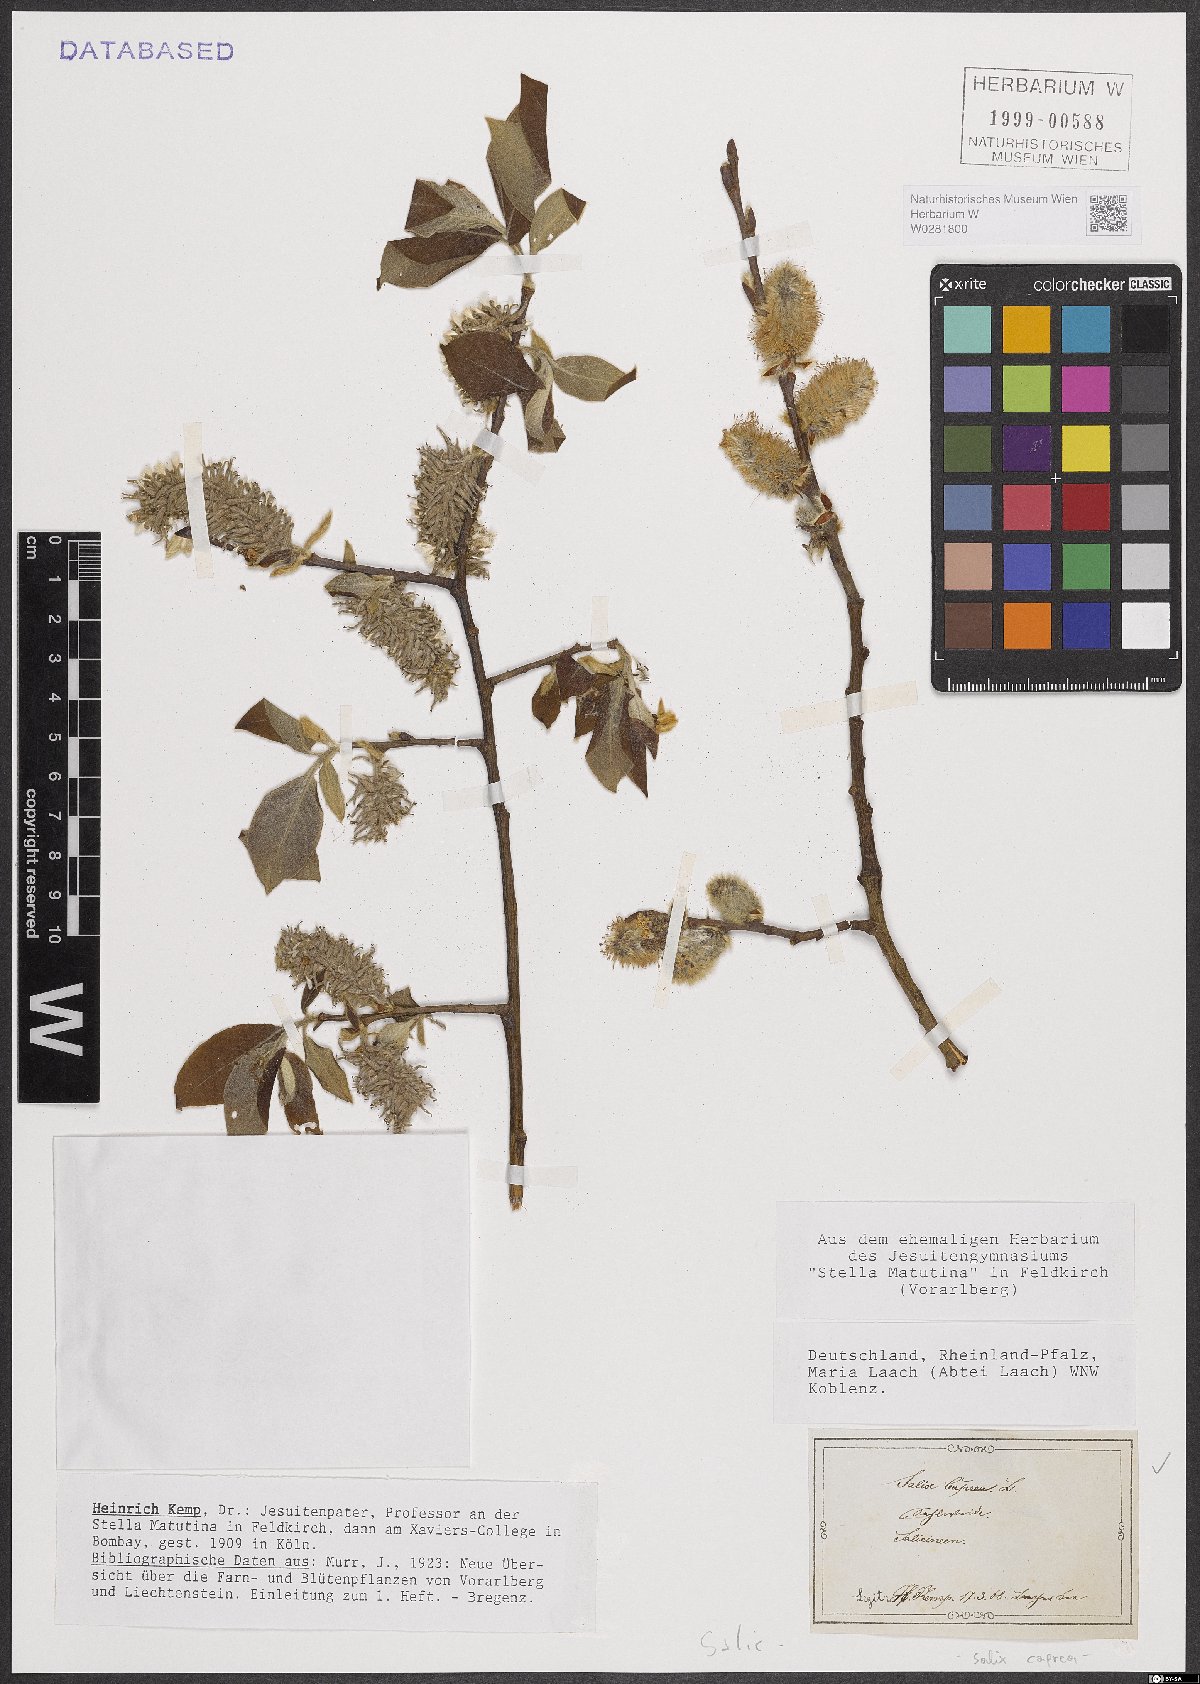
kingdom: Plantae
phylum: Tracheophyta
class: Magnoliopsida
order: Malpighiales
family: Salicaceae
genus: Salix
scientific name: Salix caprea
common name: Goat willow
